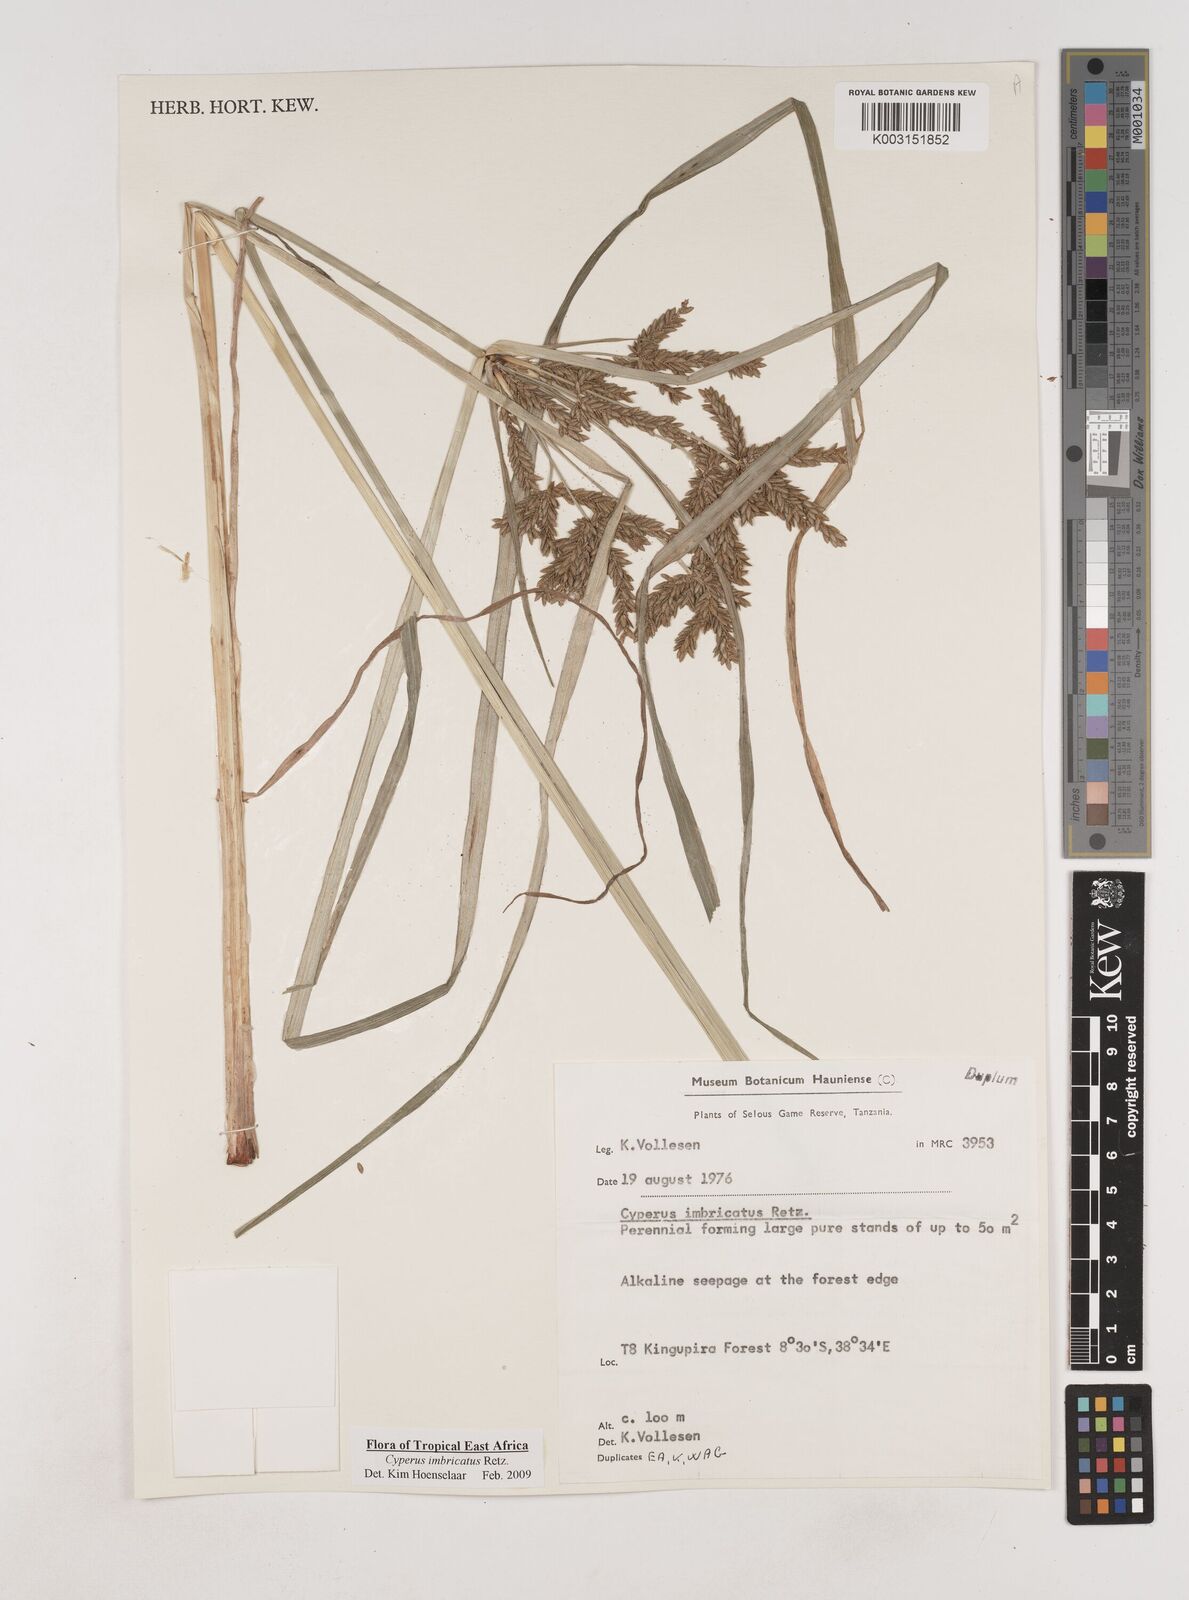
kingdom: Plantae
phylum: Tracheophyta
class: Liliopsida
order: Poales
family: Cyperaceae
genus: Cyperus
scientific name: Cyperus imbricatus
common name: Shingle flatsedge
